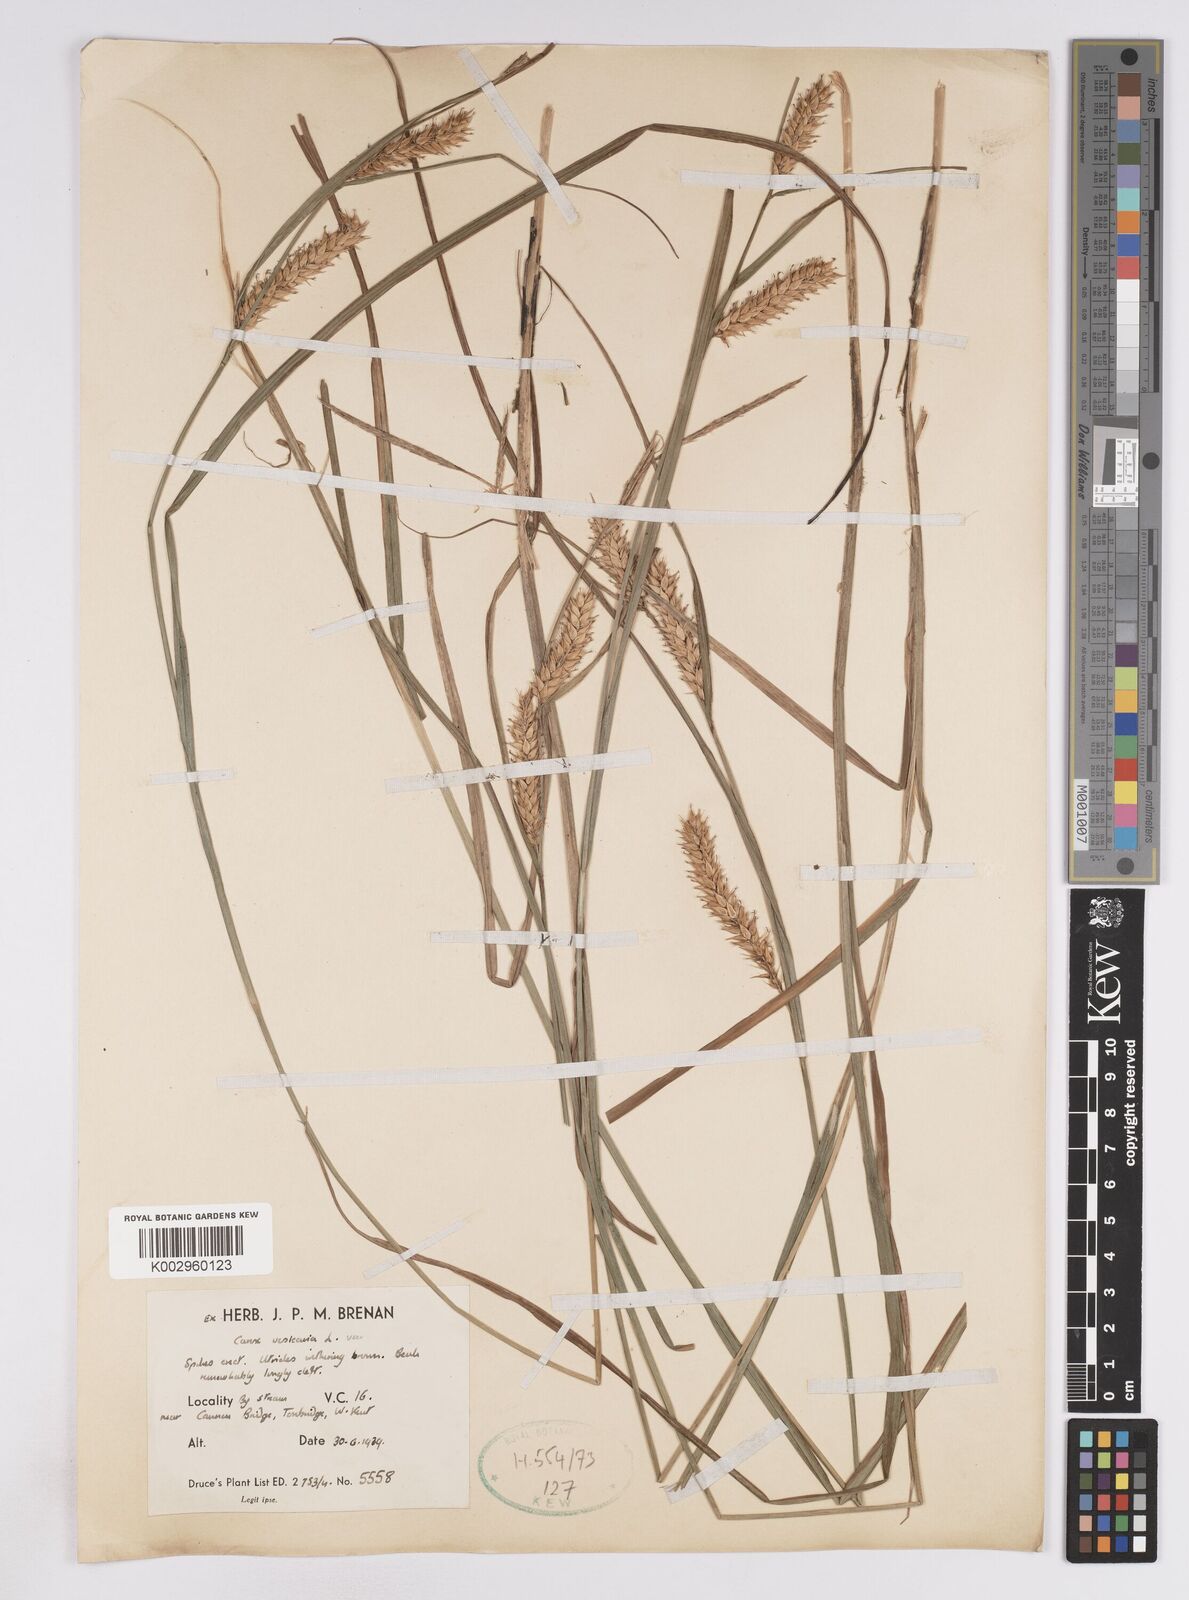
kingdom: Plantae
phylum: Tracheophyta
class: Liliopsida
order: Poales
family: Cyperaceae
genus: Carex
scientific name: Carex vesicaria
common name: Bladder-sedge
